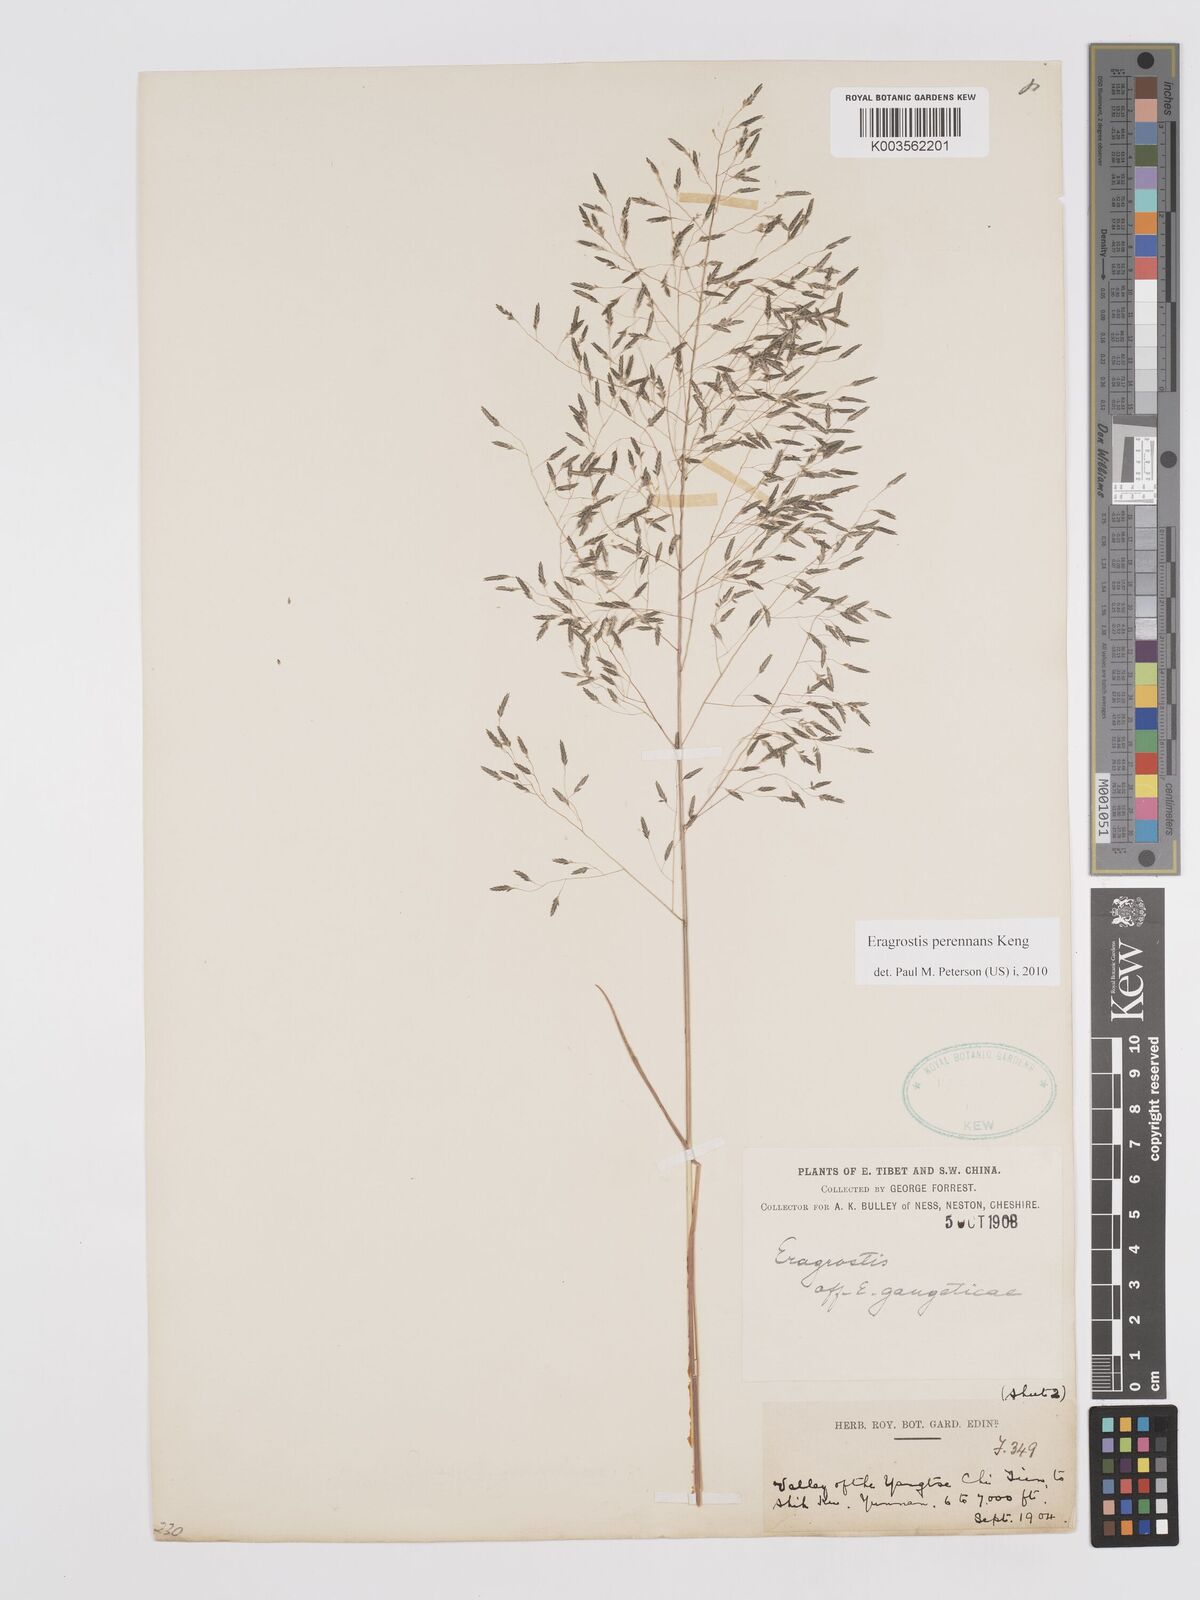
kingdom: Plantae
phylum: Tracheophyta
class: Liliopsida
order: Poales
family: Poaceae
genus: Eragrostis
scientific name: Eragrostis perennans
